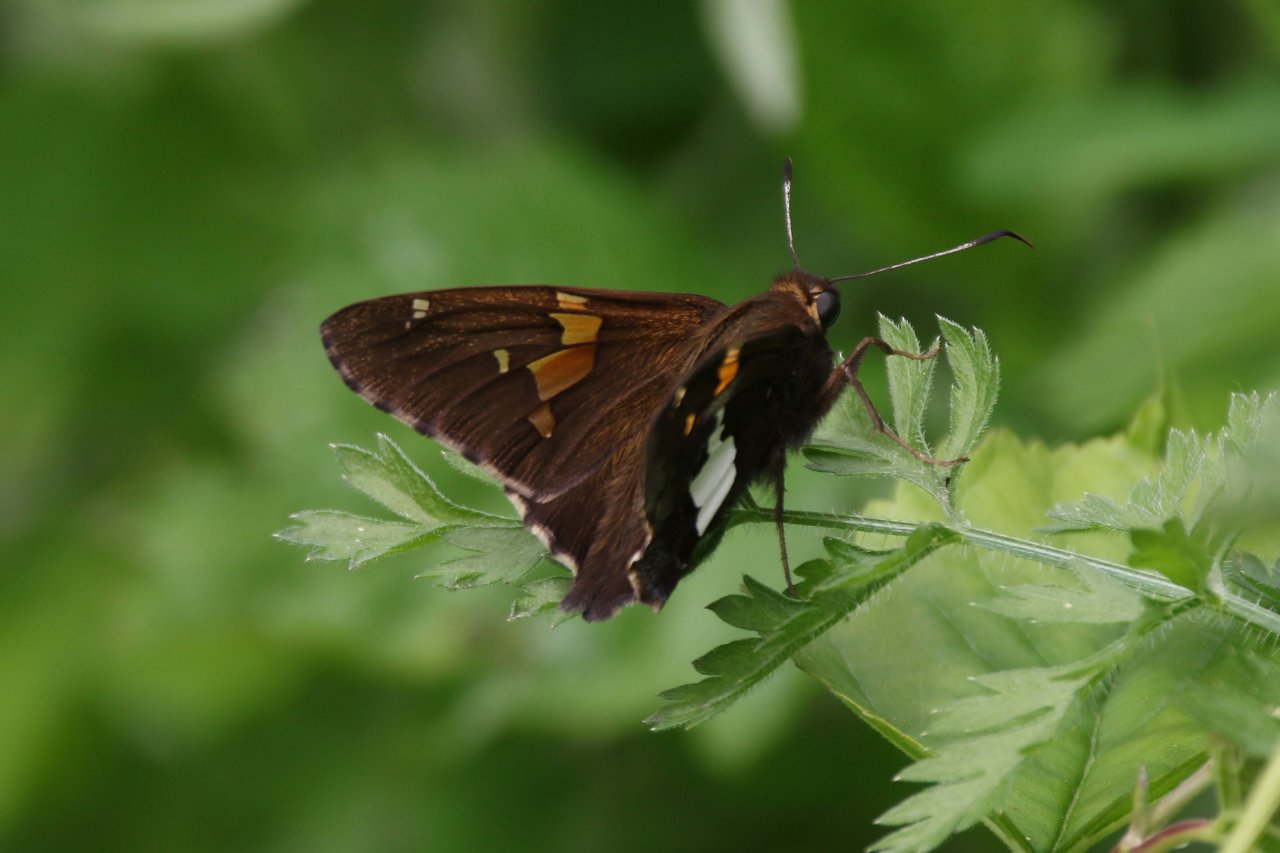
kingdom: Animalia
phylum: Arthropoda
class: Insecta
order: Lepidoptera
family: Hesperiidae
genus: Epargyreus
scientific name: Epargyreus clarus
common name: Silver-spotted Skipper
